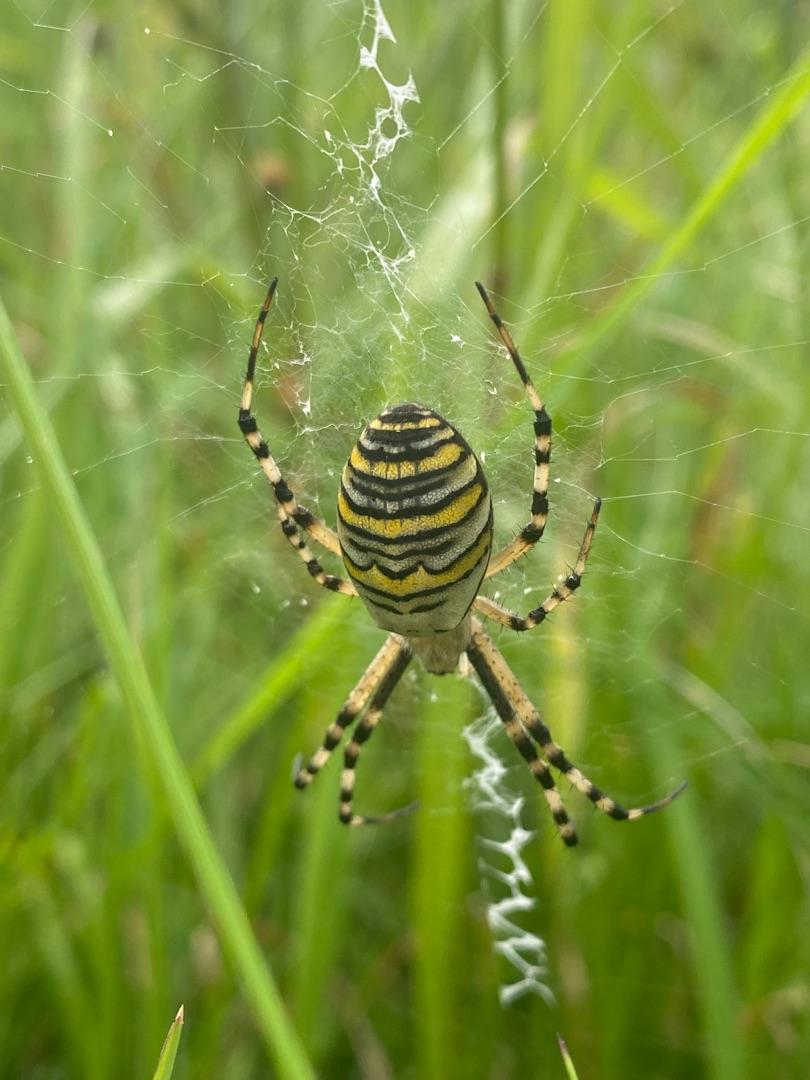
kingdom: Animalia
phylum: Arthropoda
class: Arachnida
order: Araneae
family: Araneidae
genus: Argiope
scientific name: Argiope bruennichi
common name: Hvepseedderkop
